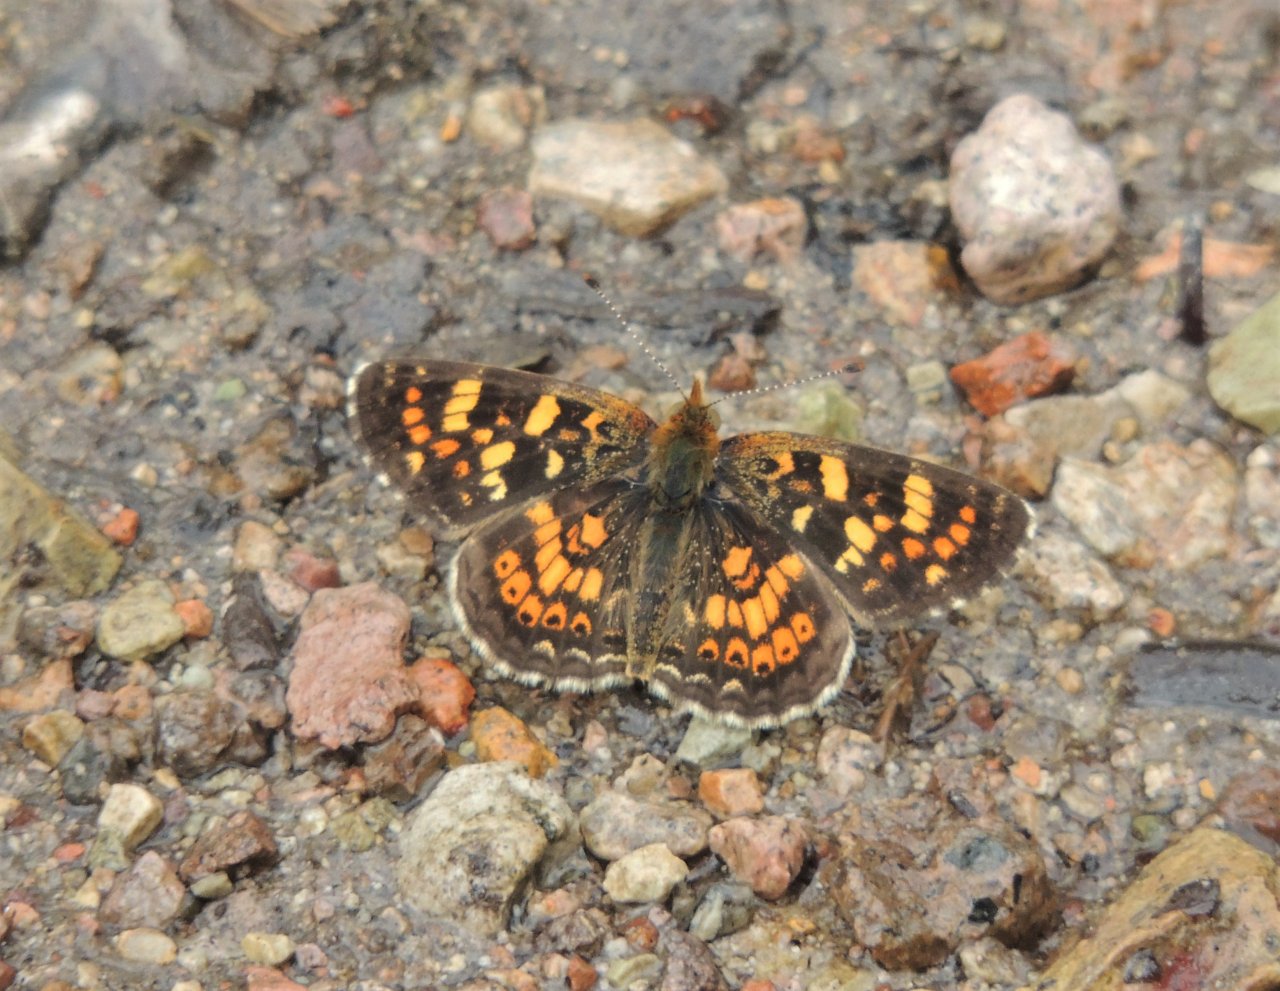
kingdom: Animalia
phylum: Arthropoda
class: Insecta
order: Lepidoptera
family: Nymphalidae
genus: Phyciodes
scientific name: Phyciodes tharos
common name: Field Crescent
